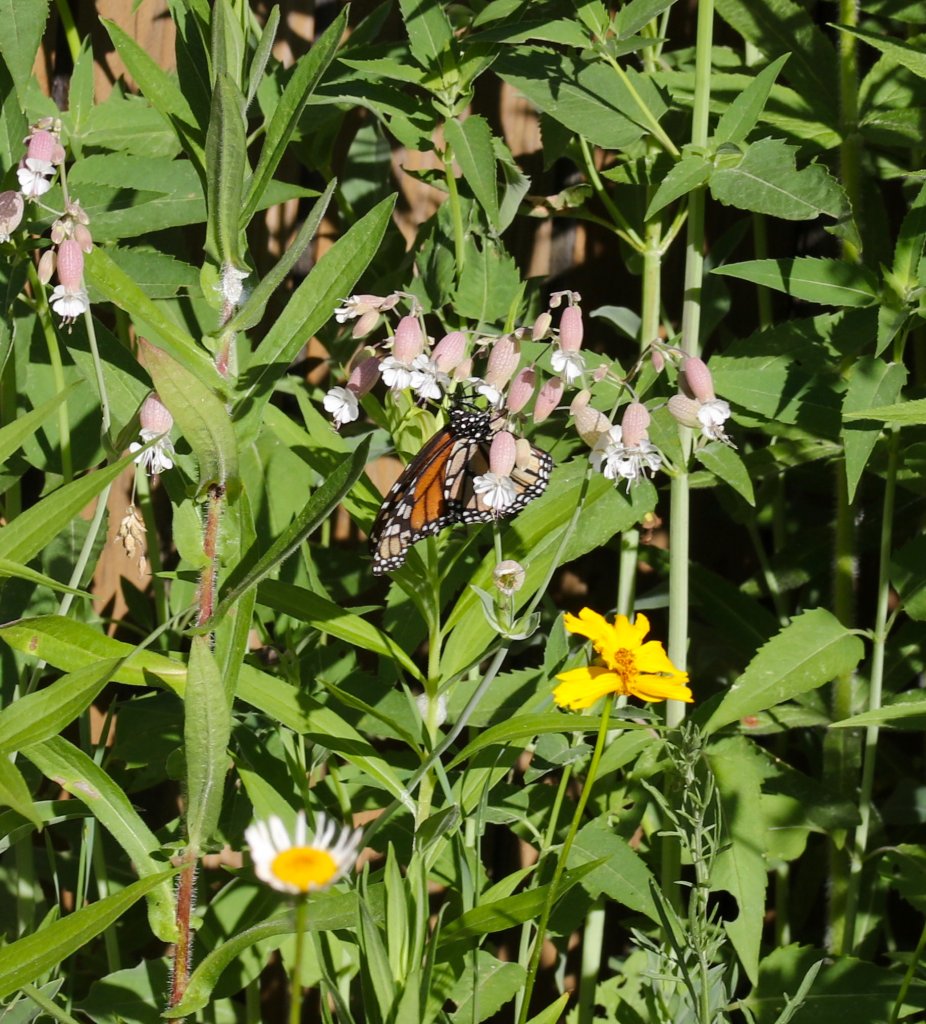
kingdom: Animalia
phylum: Arthropoda
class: Insecta
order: Lepidoptera
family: Nymphalidae
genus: Danaus
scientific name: Danaus plexippus
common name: Monarch
